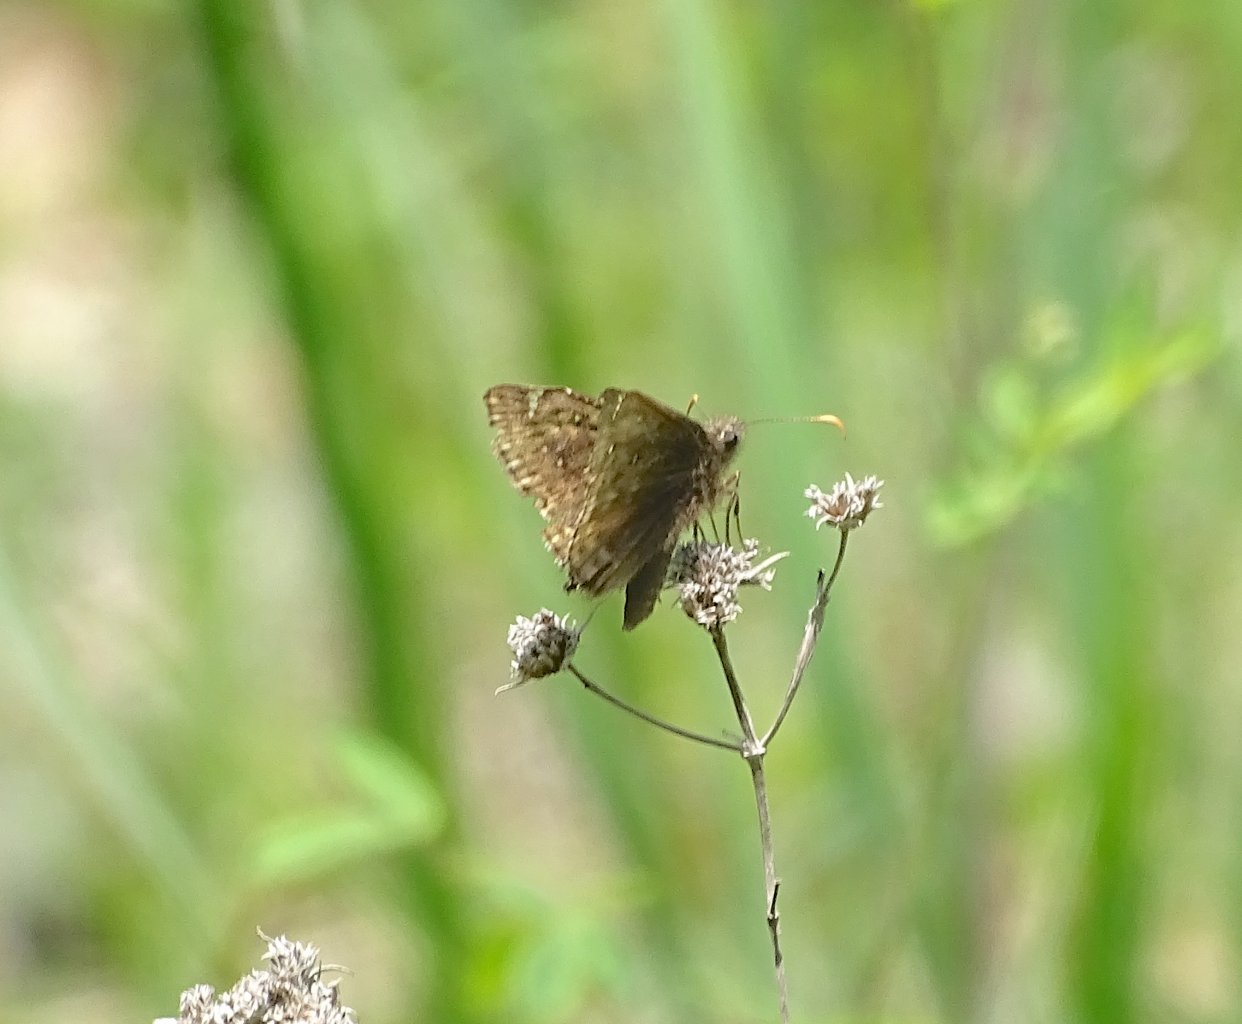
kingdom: Animalia
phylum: Arthropoda
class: Insecta
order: Lepidoptera
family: Hesperiidae
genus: Gesta
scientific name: Gesta
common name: Juvenal's Duskywing
